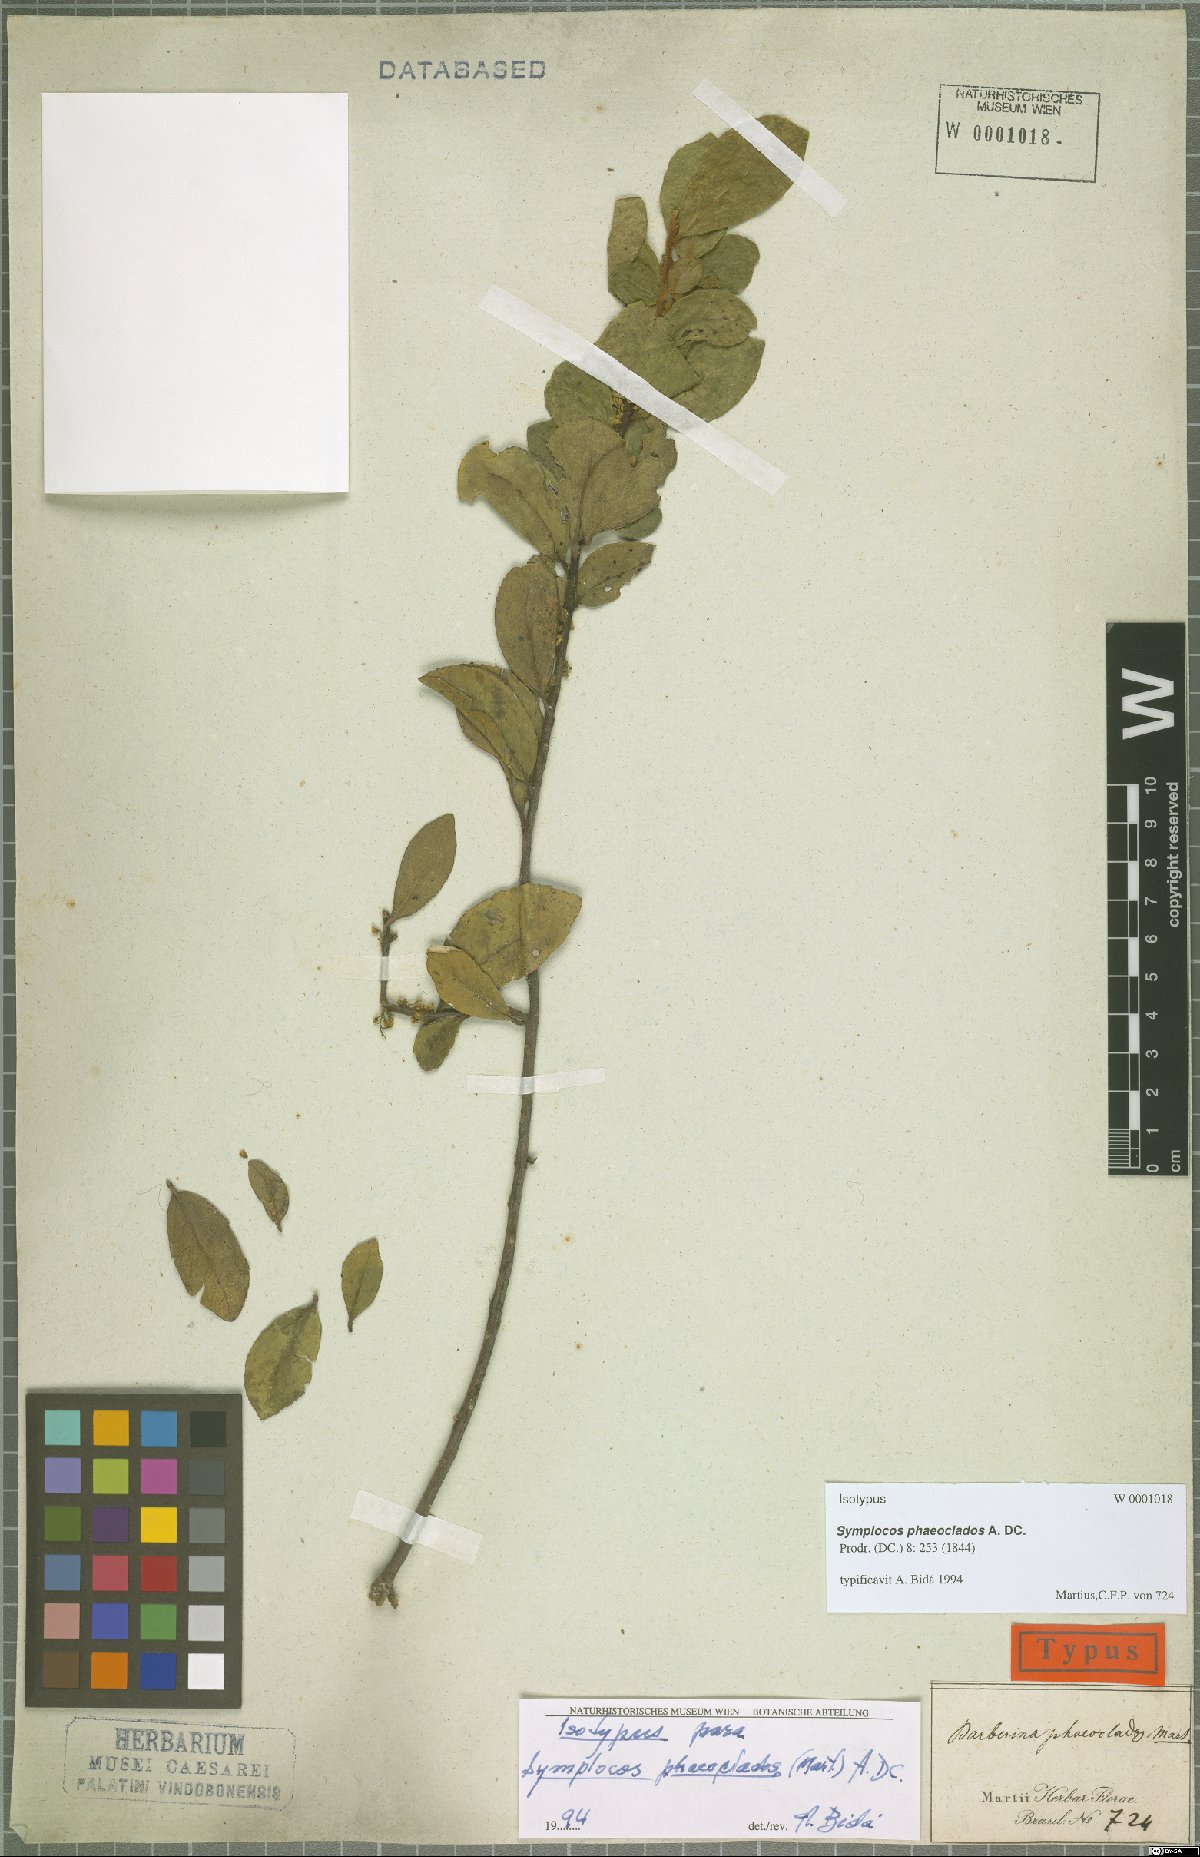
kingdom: Plantae
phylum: Tracheophyta
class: Magnoliopsida
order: Ericales
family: Symplocaceae
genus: Symplocos
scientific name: Symplocos arbutifolia
